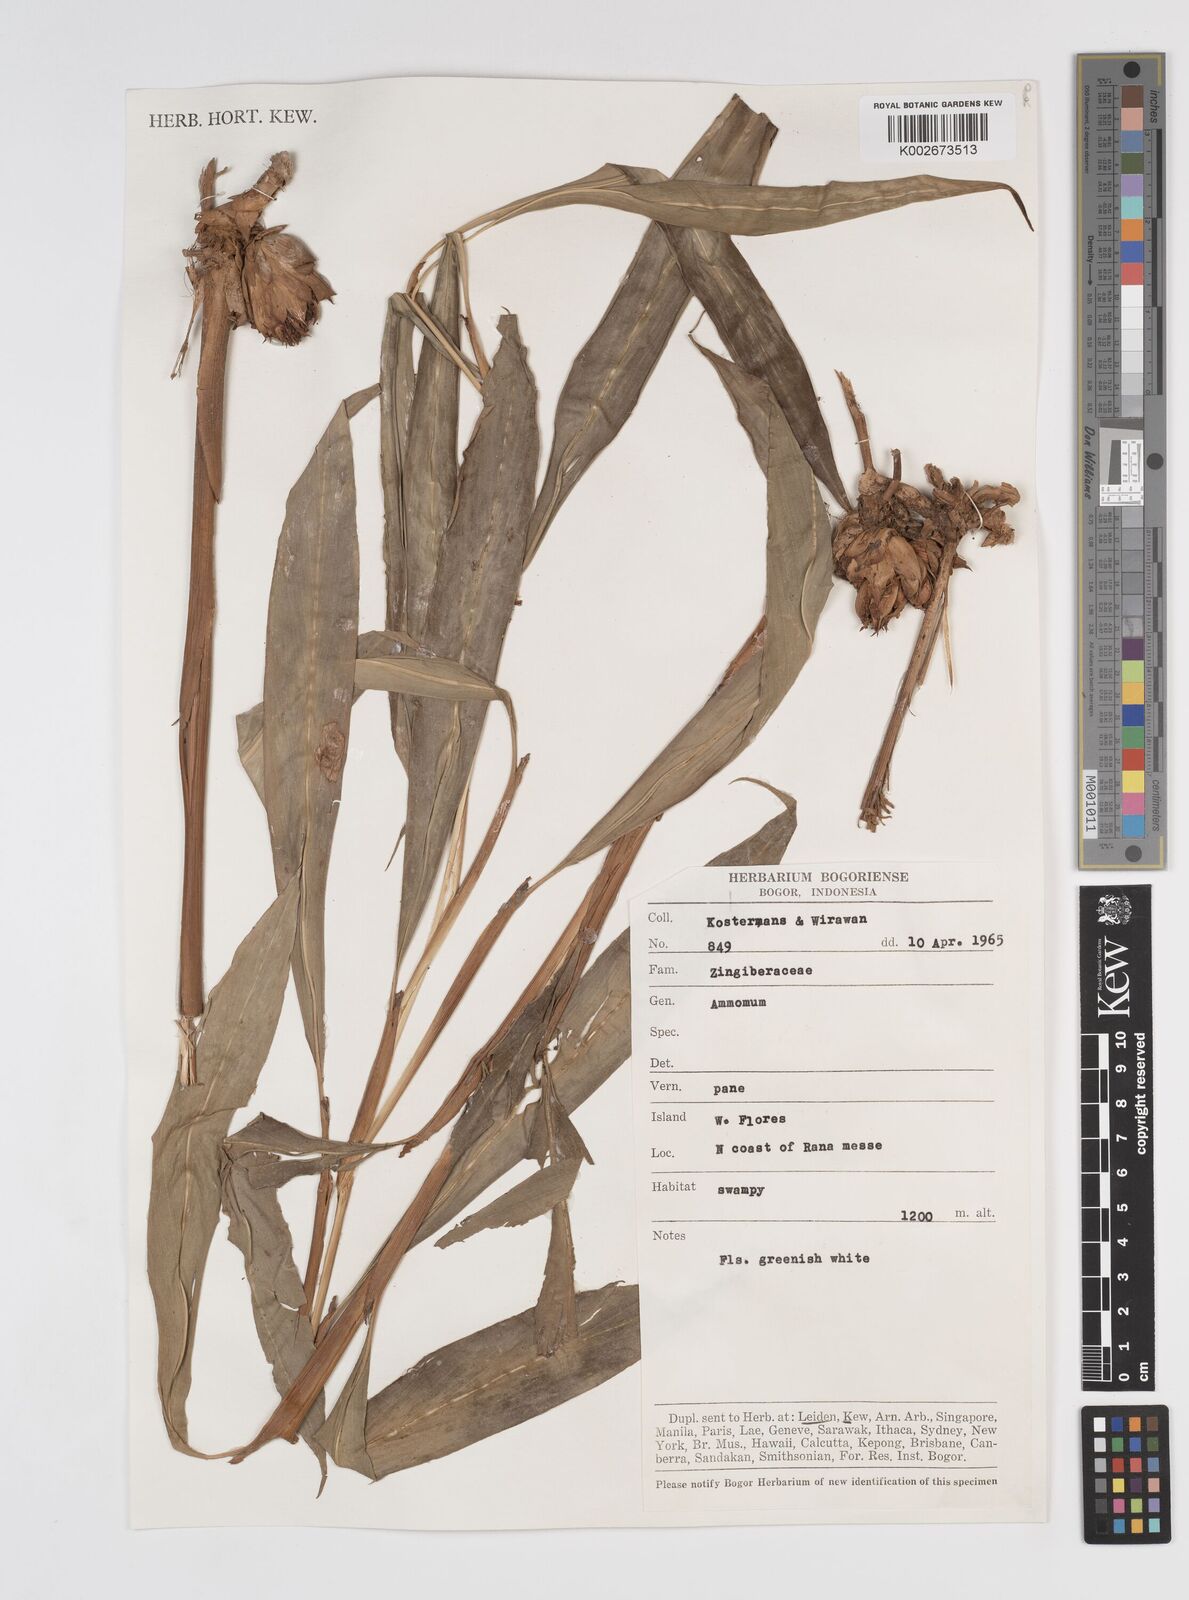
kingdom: Plantae
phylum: Tracheophyta
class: Liliopsida
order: Zingiberales
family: Zingiberaceae
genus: Amomum
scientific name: Amomum
